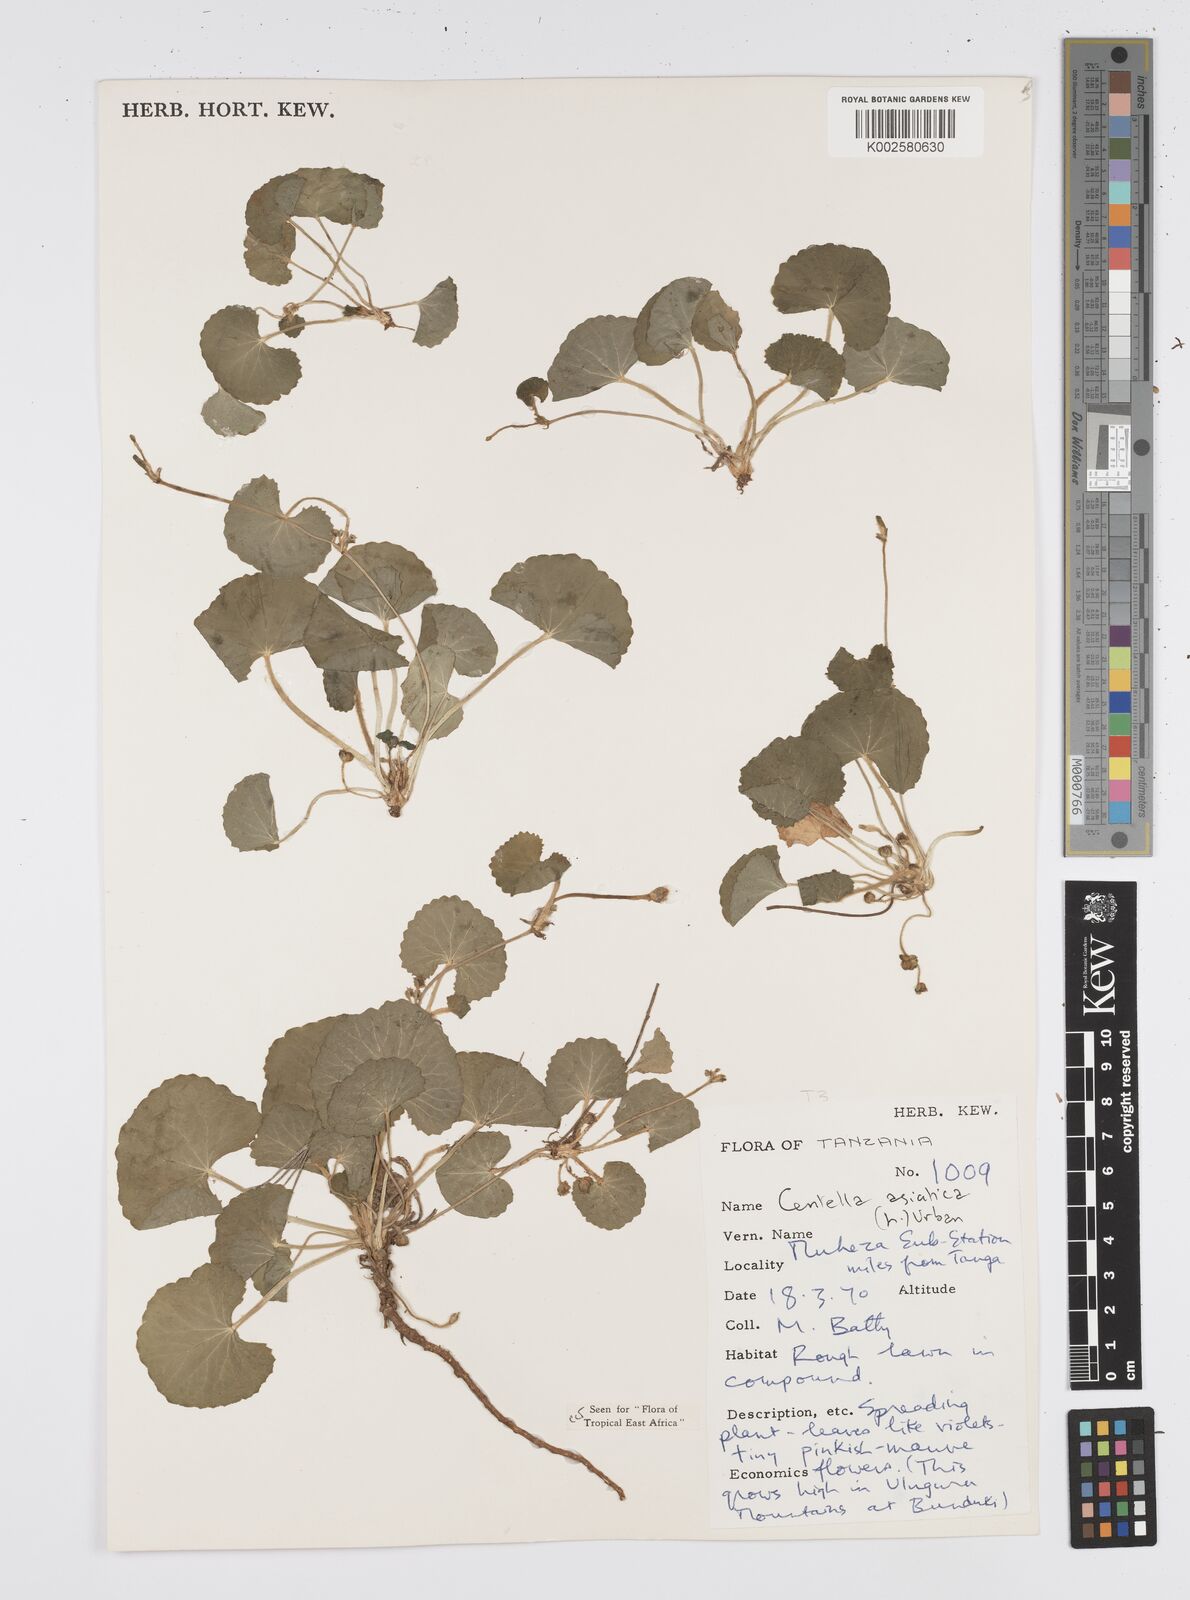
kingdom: Plantae
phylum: Tracheophyta
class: Magnoliopsida
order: Apiales
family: Apiaceae
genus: Centella
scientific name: Centella asiatica
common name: Spadeleaf
